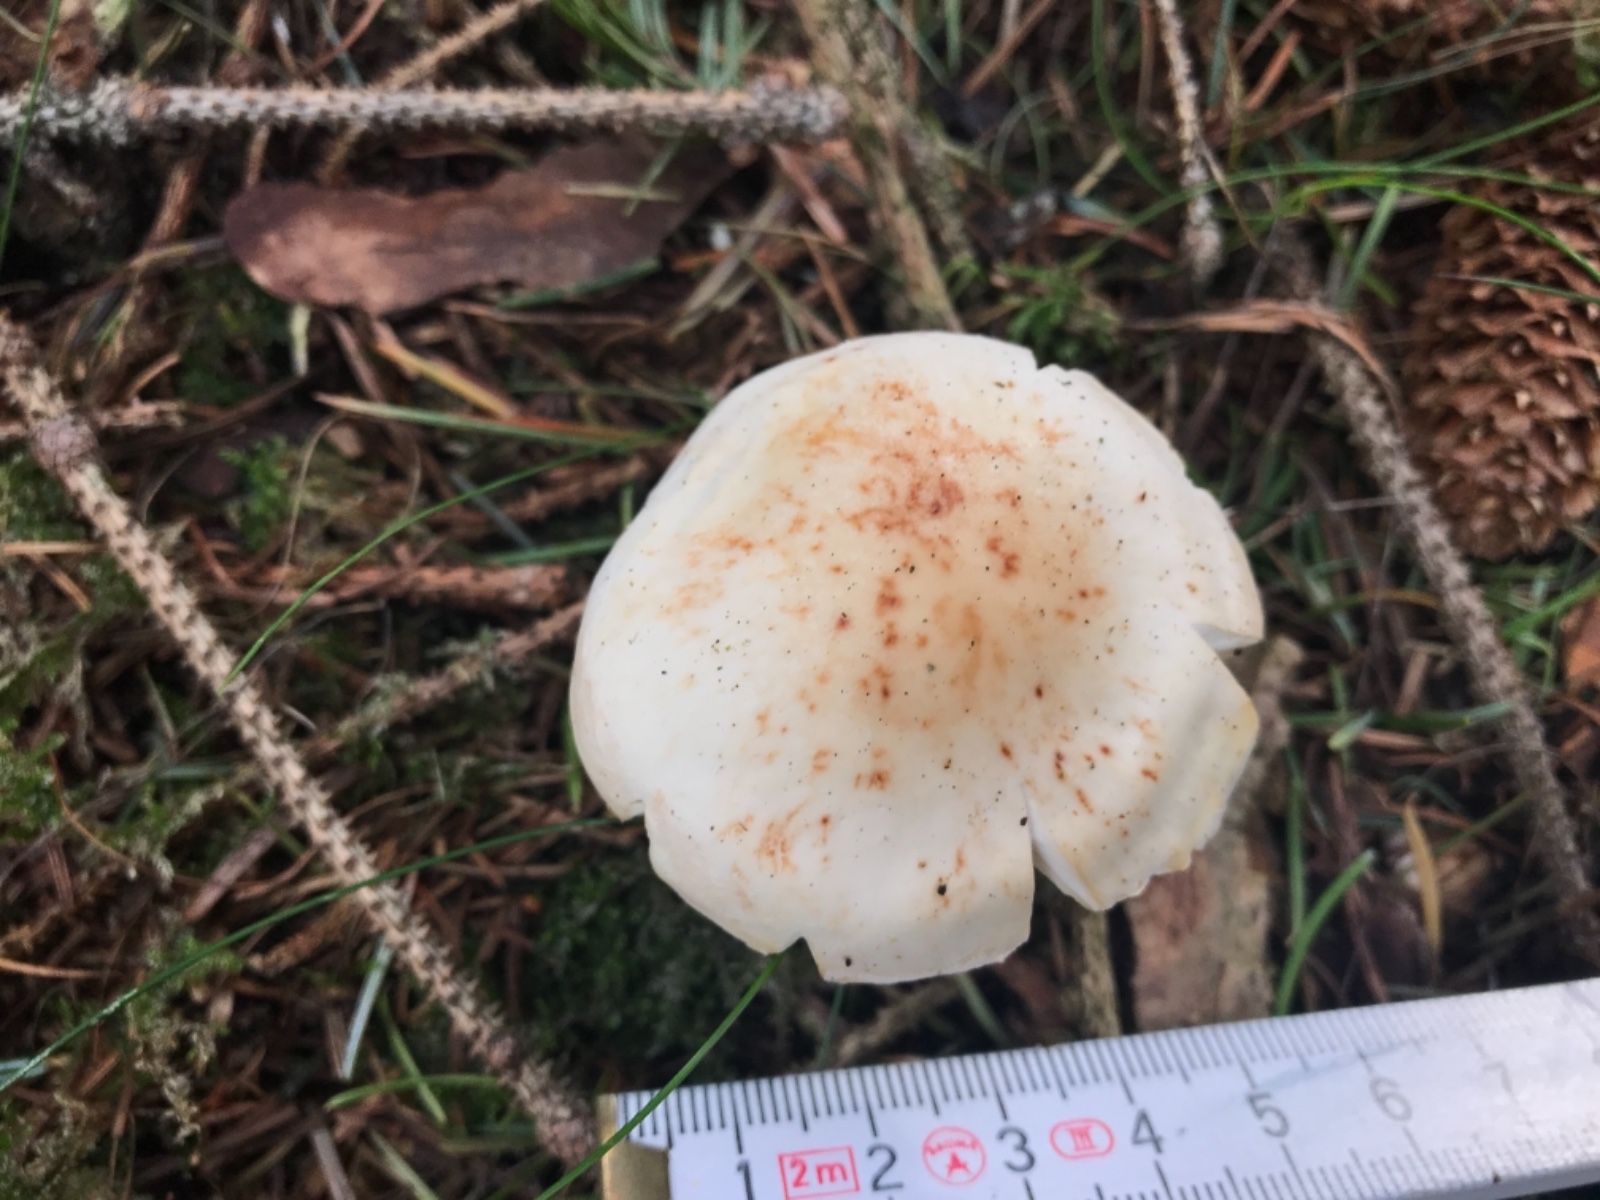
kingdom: Fungi
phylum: Basidiomycota
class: Agaricomycetes
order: Agaricales
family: Omphalotaceae
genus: Rhodocollybia
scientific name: Rhodocollybia maculata
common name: plettet fladhat
